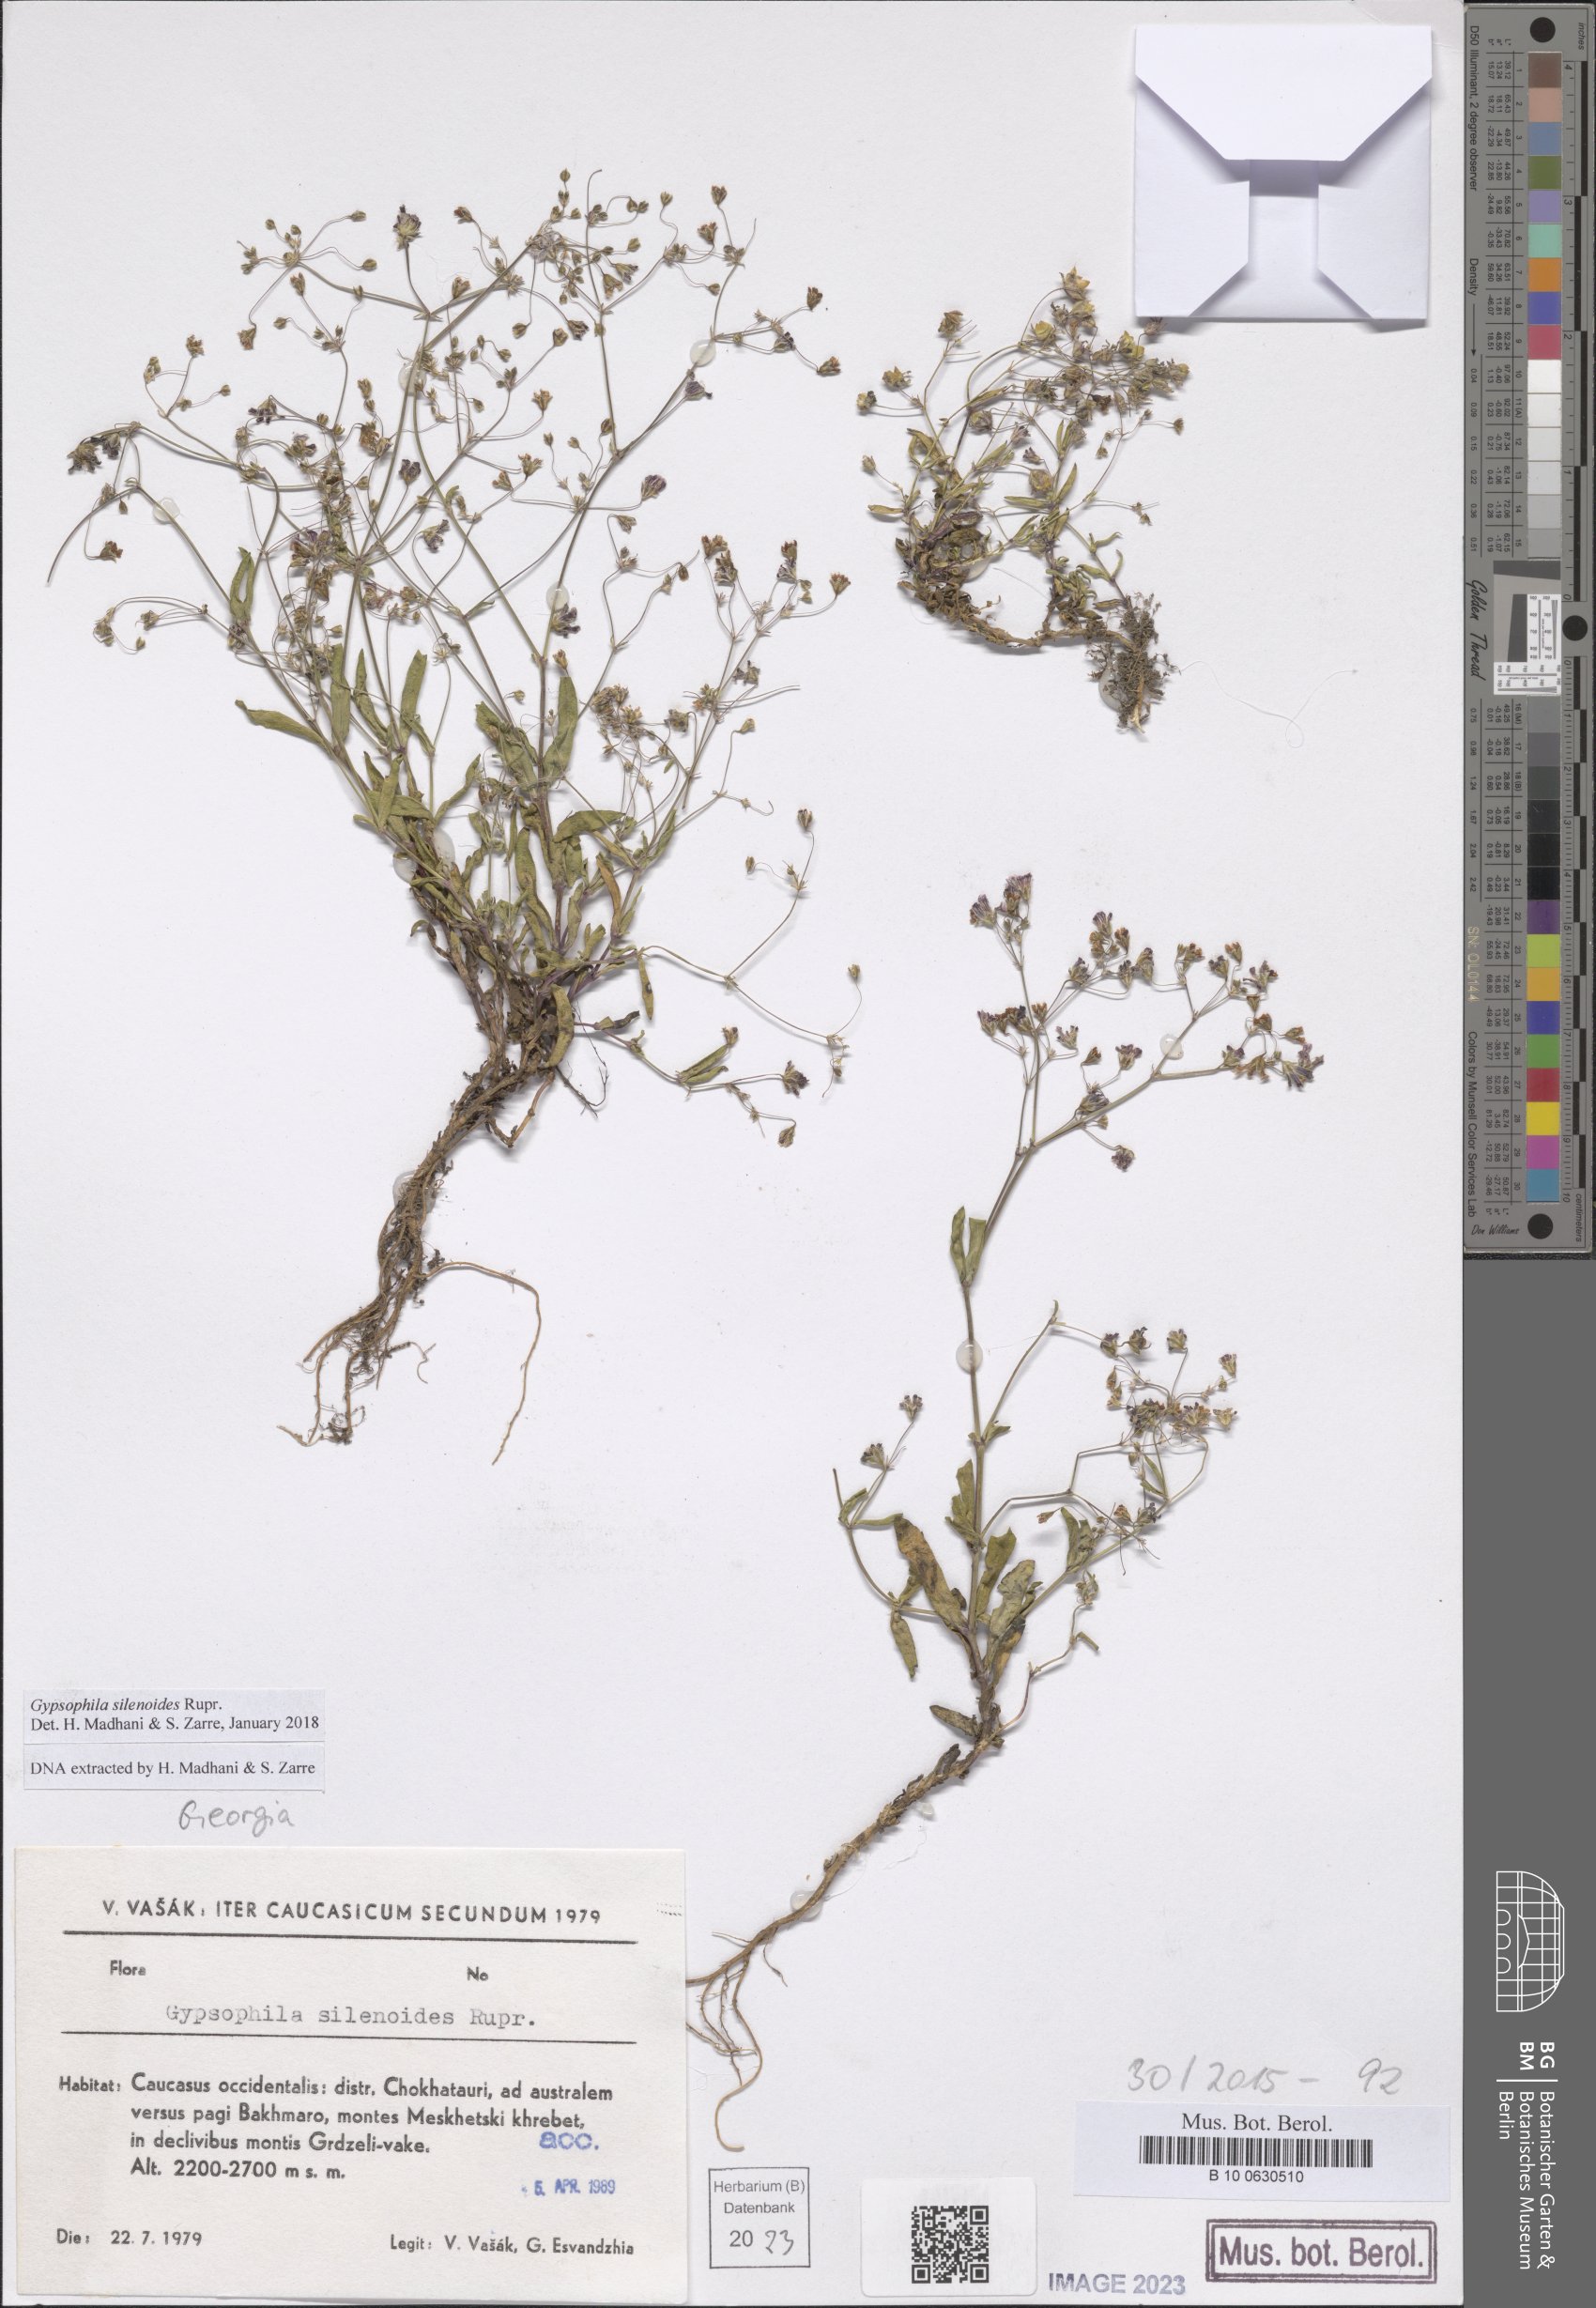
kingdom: Plantae
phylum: Tracheophyta
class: Magnoliopsida
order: Caryophyllales
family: Caryophyllaceae
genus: Gypsophila
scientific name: Gypsophila silenoides
